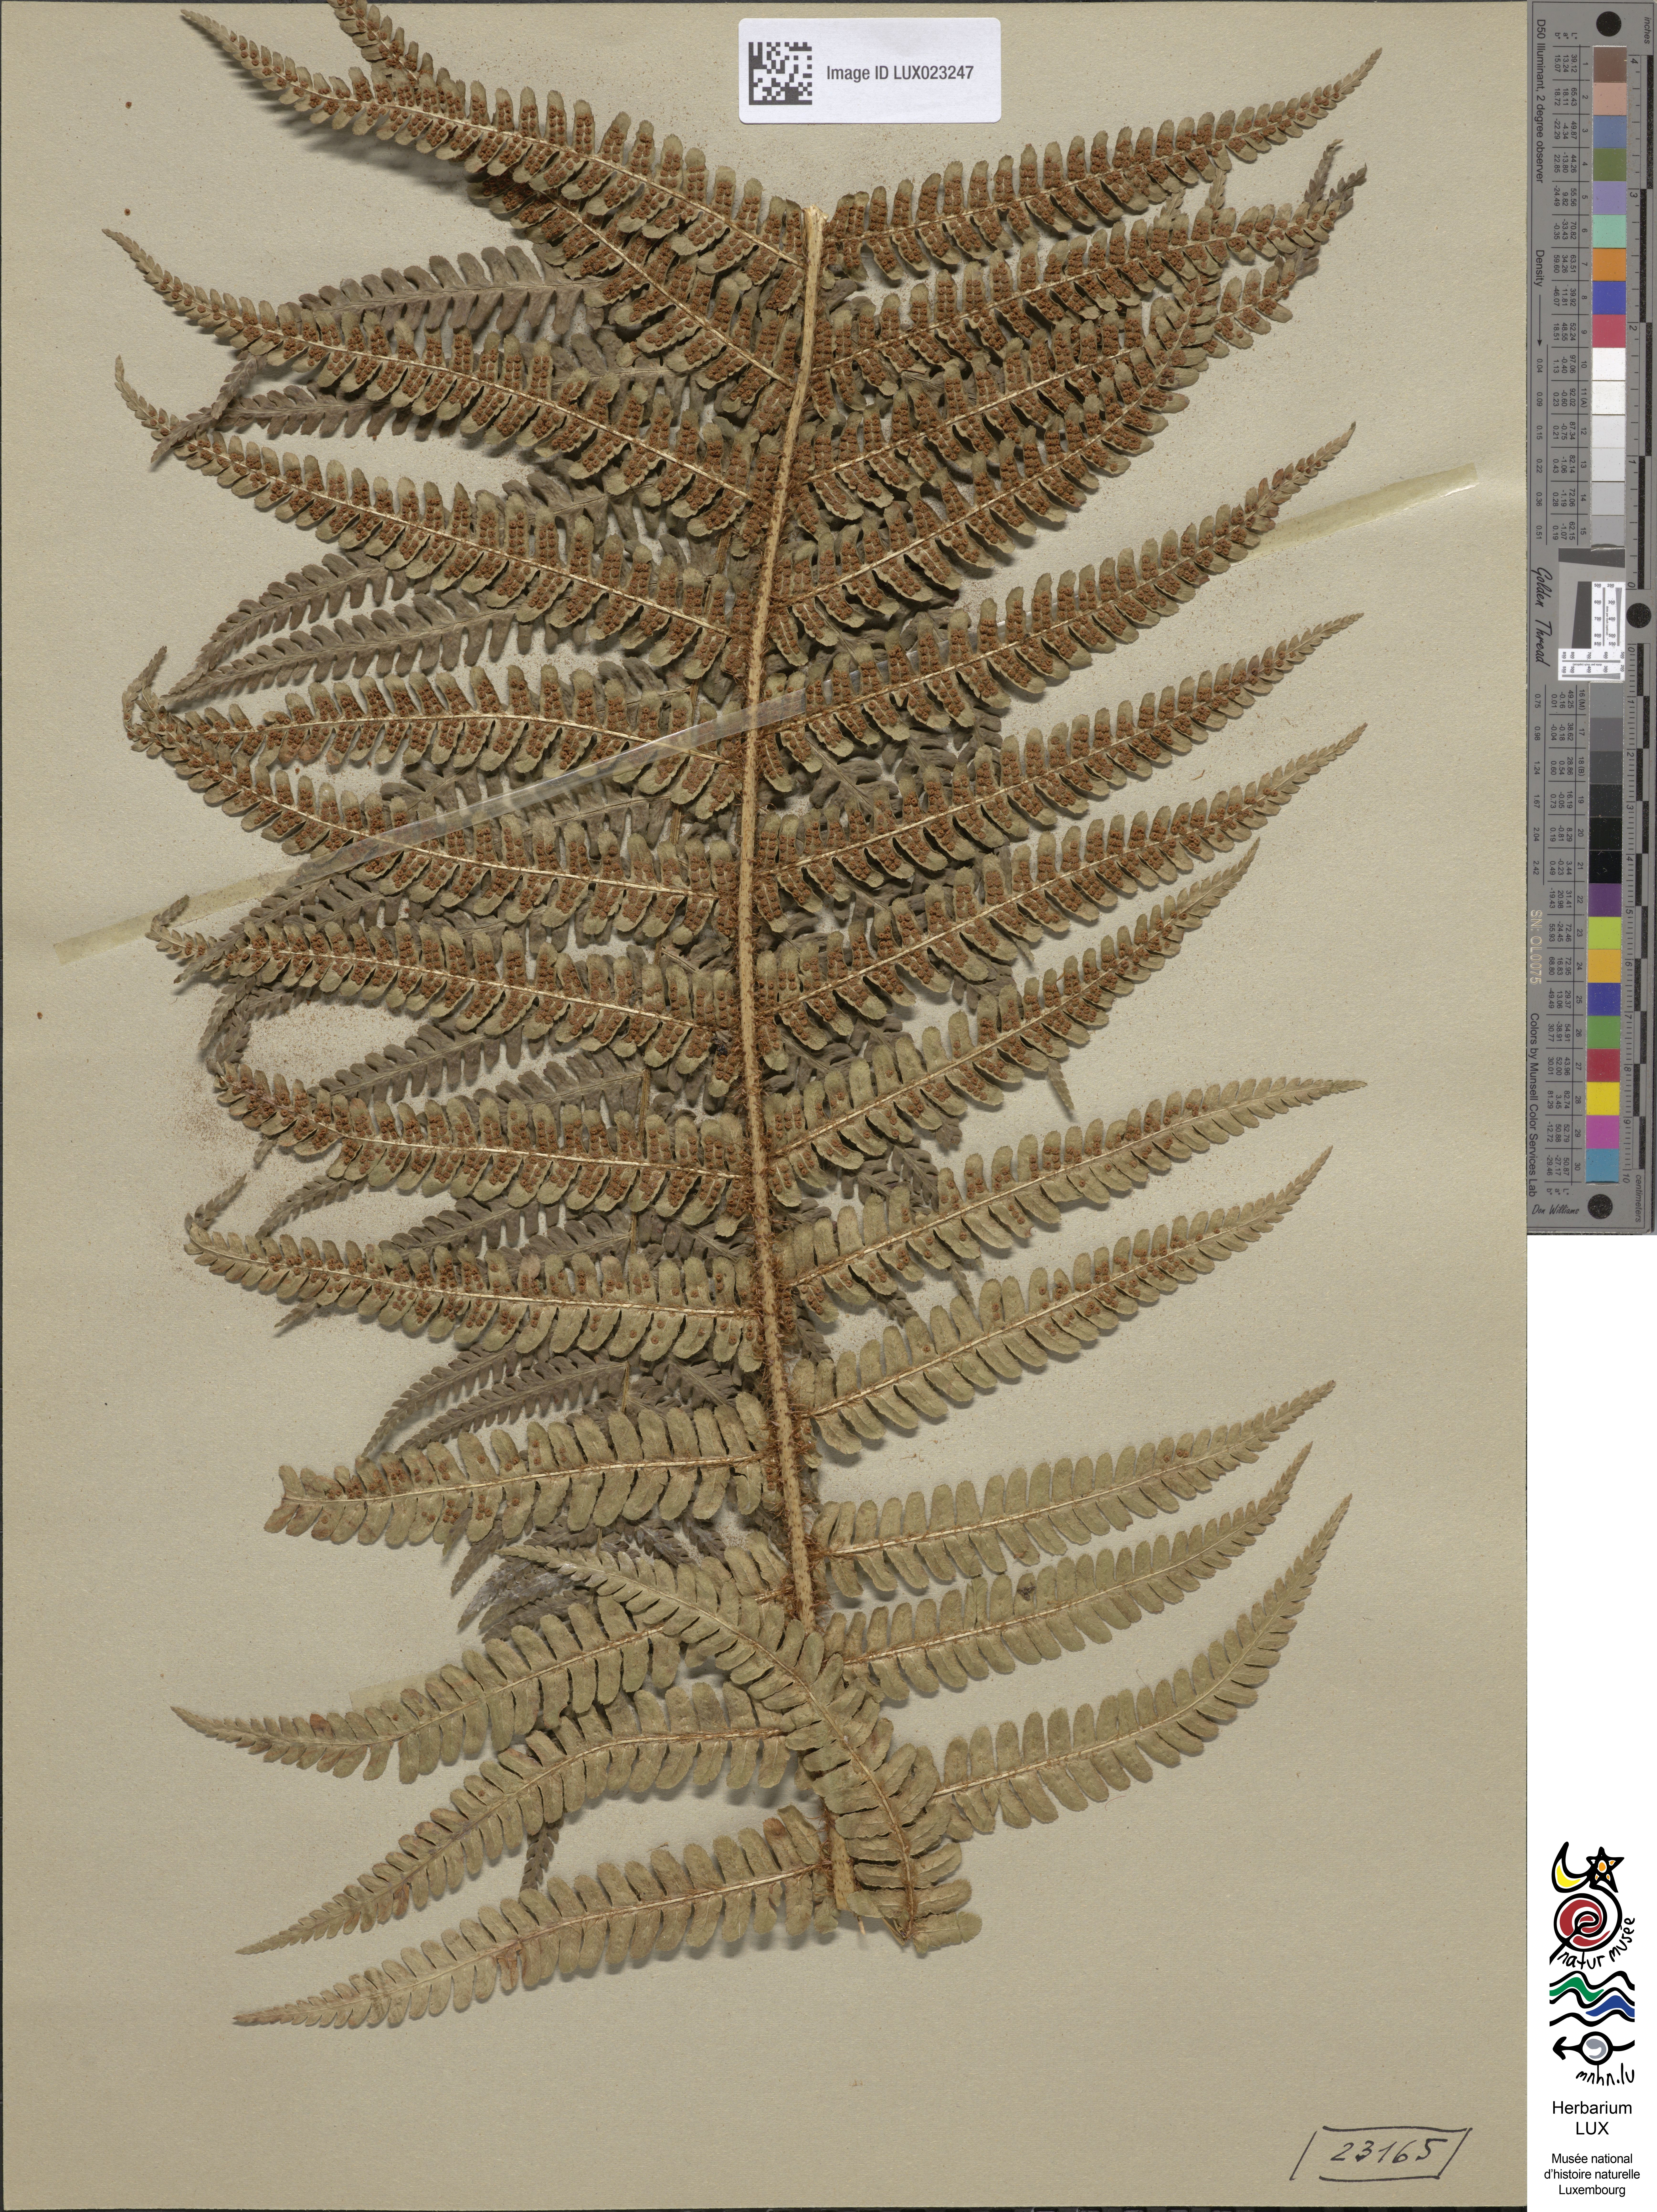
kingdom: Plantae
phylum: Tracheophyta
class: Polypodiopsida
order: Polypodiales
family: Dryopteridaceae
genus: Dryopteris
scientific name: Dryopteris paleacea
